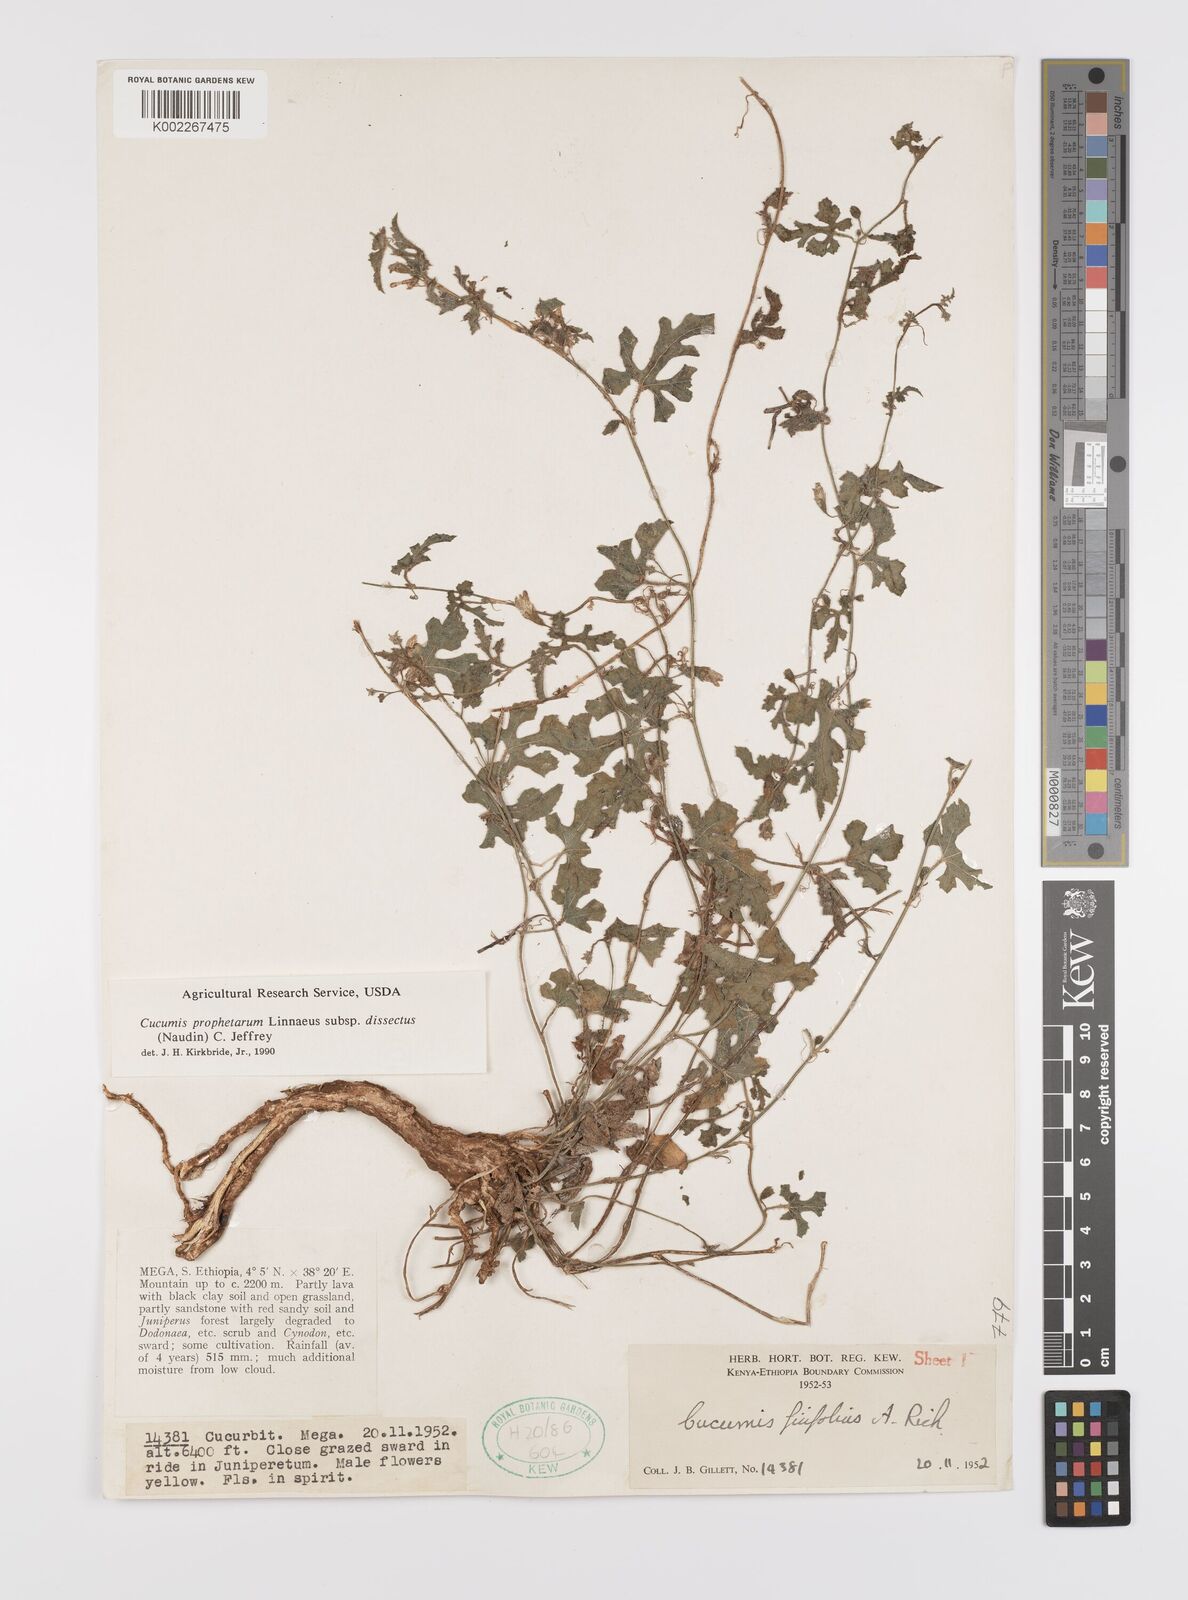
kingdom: Plantae
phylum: Tracheophyta
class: Magnoliopsida
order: Cucurbitales
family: Cucurbitaceae
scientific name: Cucurbitaceae
